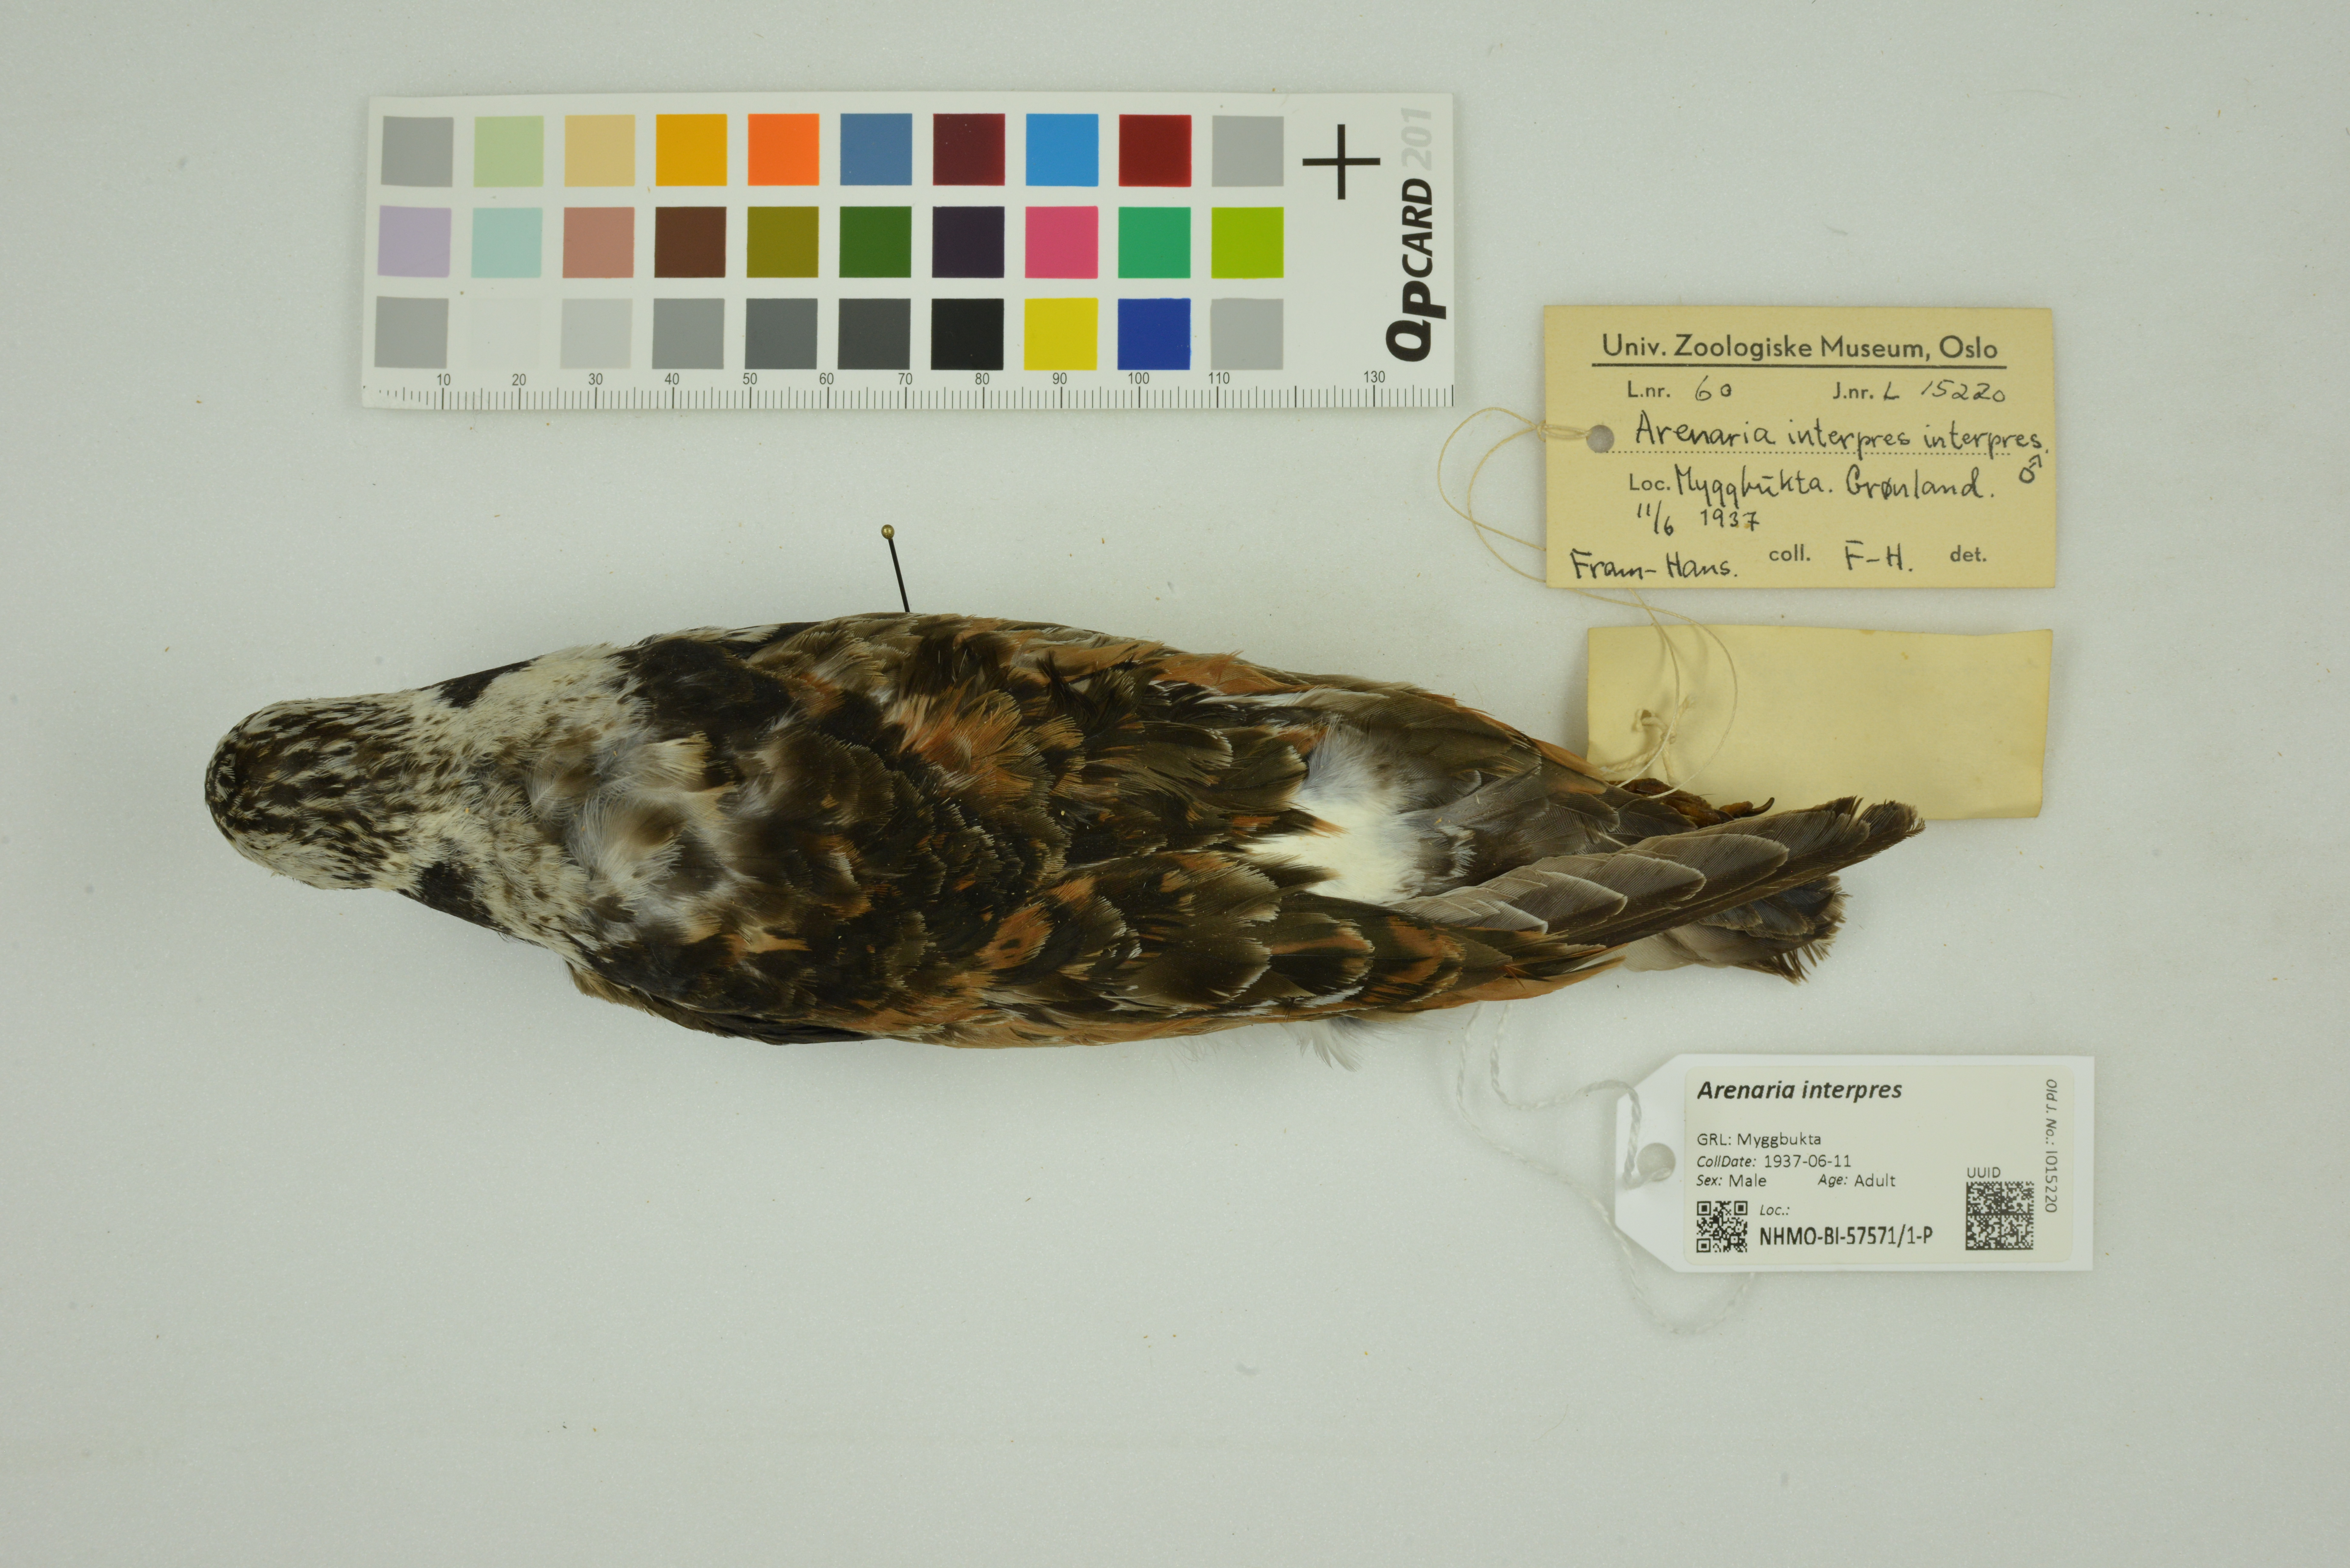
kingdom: Animalia
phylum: Chordata
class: Aves
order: Charadriiformes
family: Scolopacidae
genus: Arenaria
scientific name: Arenaria interpres
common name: Ruddy turnstone
